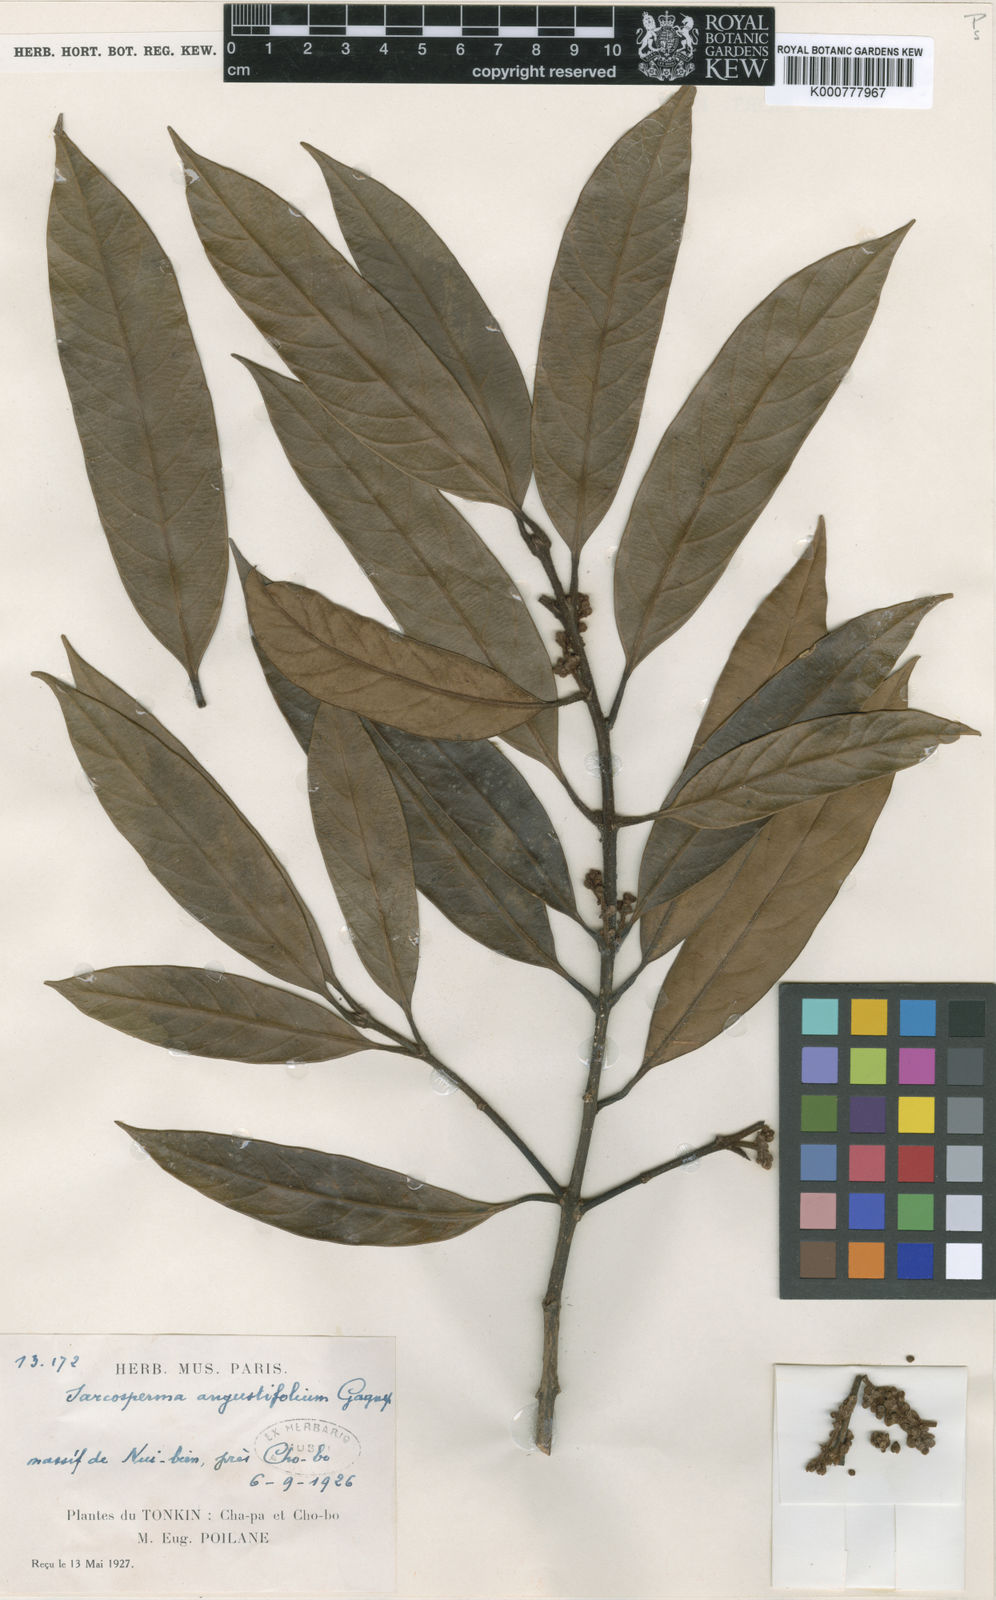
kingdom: Plantae
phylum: Tracheophyta
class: Magnoliopsida
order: Ericales
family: Sapotaceae
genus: Sarcosperma
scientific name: Sarcosperma angustifolium
